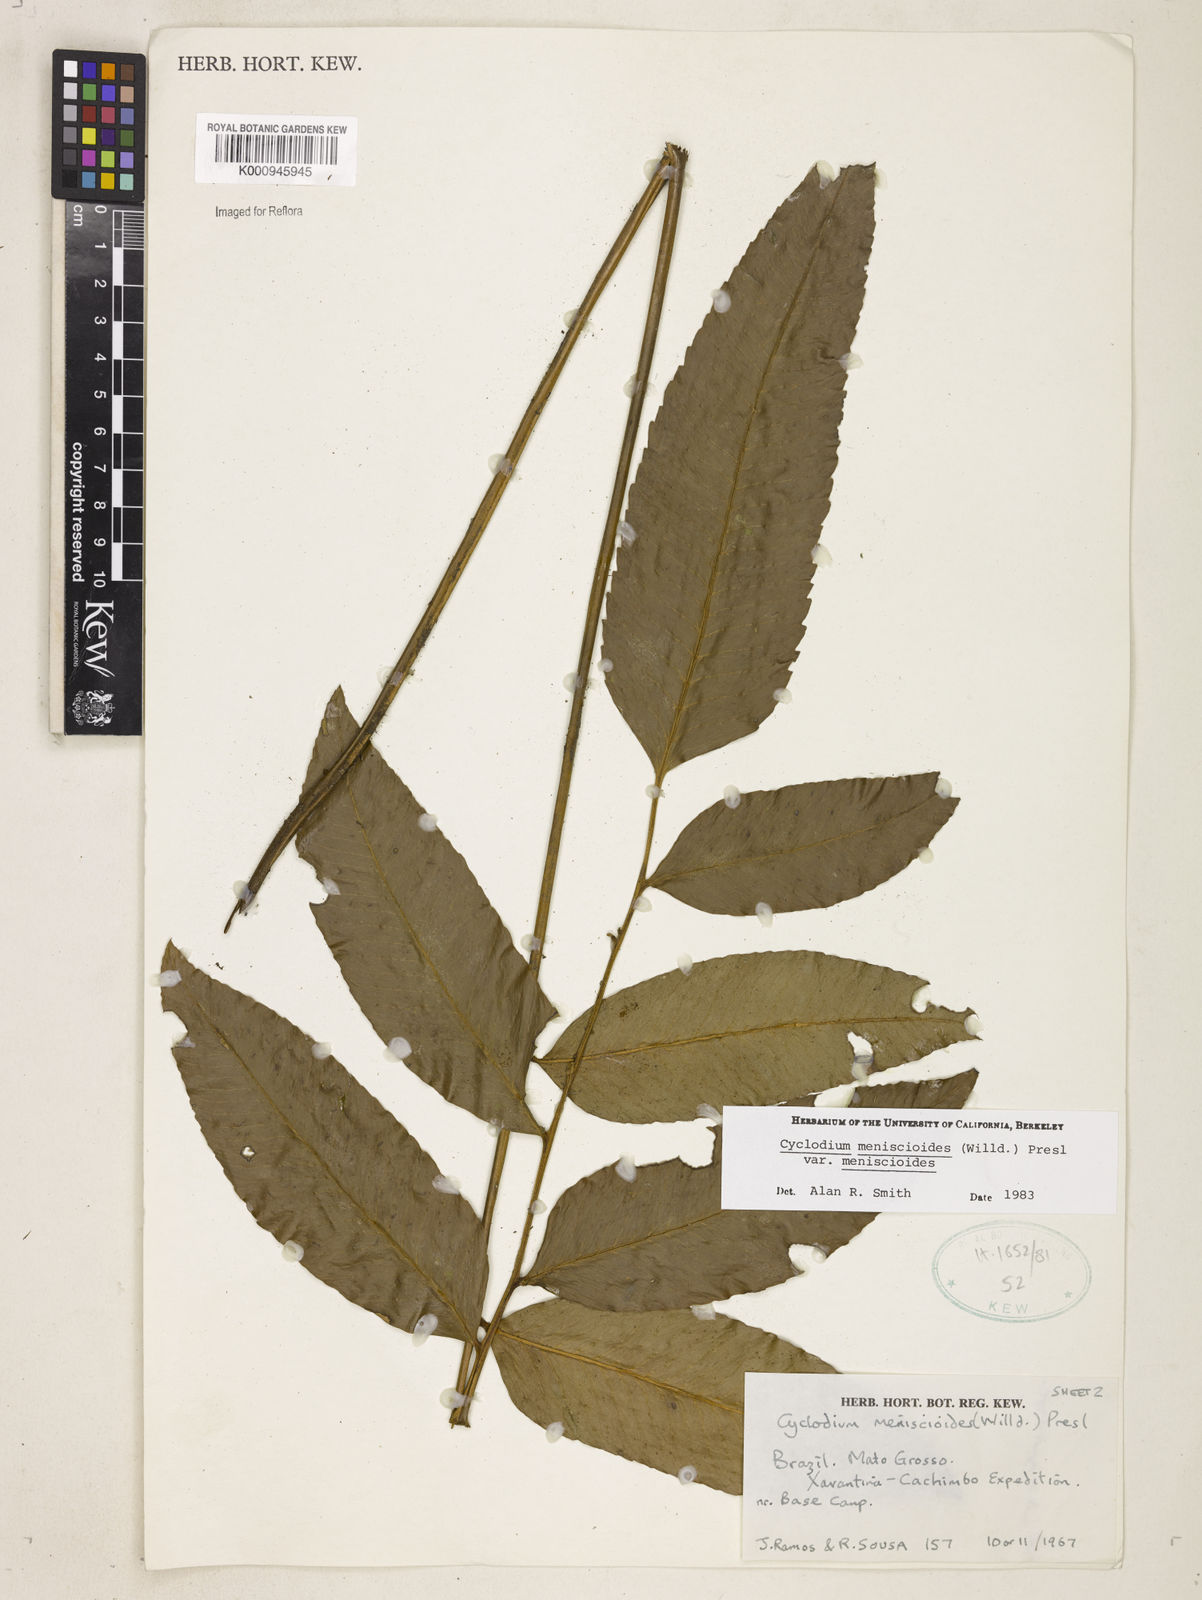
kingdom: Plantae
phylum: Tracheophyta
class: Polypodiopsida
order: Polypodiales
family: Dryopteridaceae
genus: Cyclodium
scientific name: Cyclodium meniscioides
